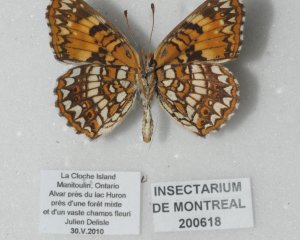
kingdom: Animalia
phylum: Arthropoda
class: Insecta
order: Lepidoptera
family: Nymphalidae
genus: Chlosyne
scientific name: Chlosyne harrisii
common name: Harris's Checkerspot
